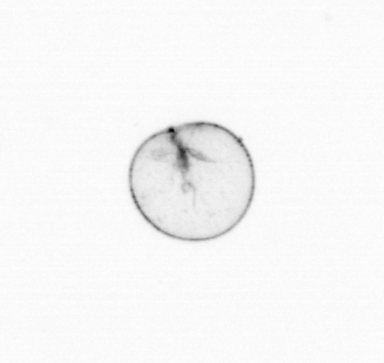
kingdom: Chromista
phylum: Myzozoa
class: Dinophyceae
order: Noctilucales
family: Noctilucaceae
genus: Noctiluca
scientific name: Noctiluca scintillans
